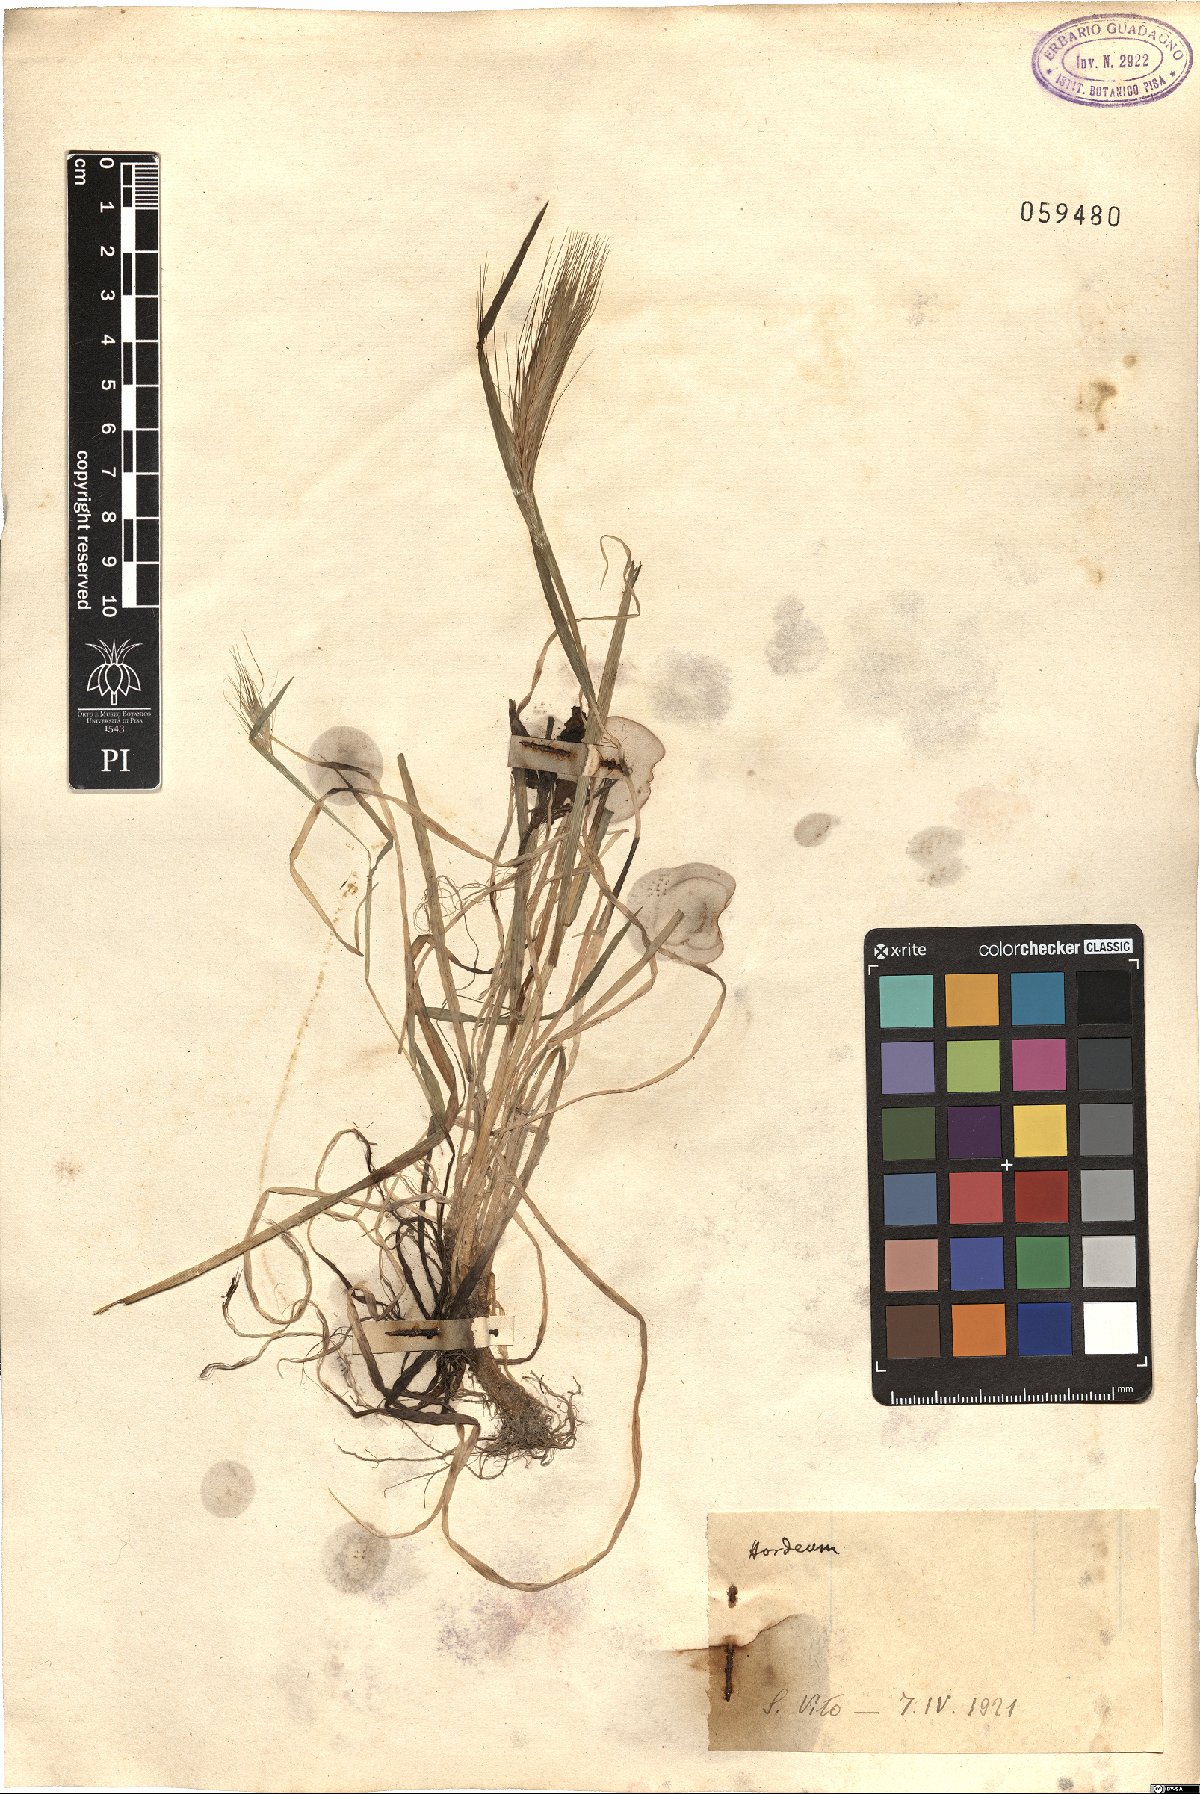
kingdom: Plantae
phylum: Tracheophyta
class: Liliopsida
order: Poales
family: Poaceae
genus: Hordeum
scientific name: Hordeum
